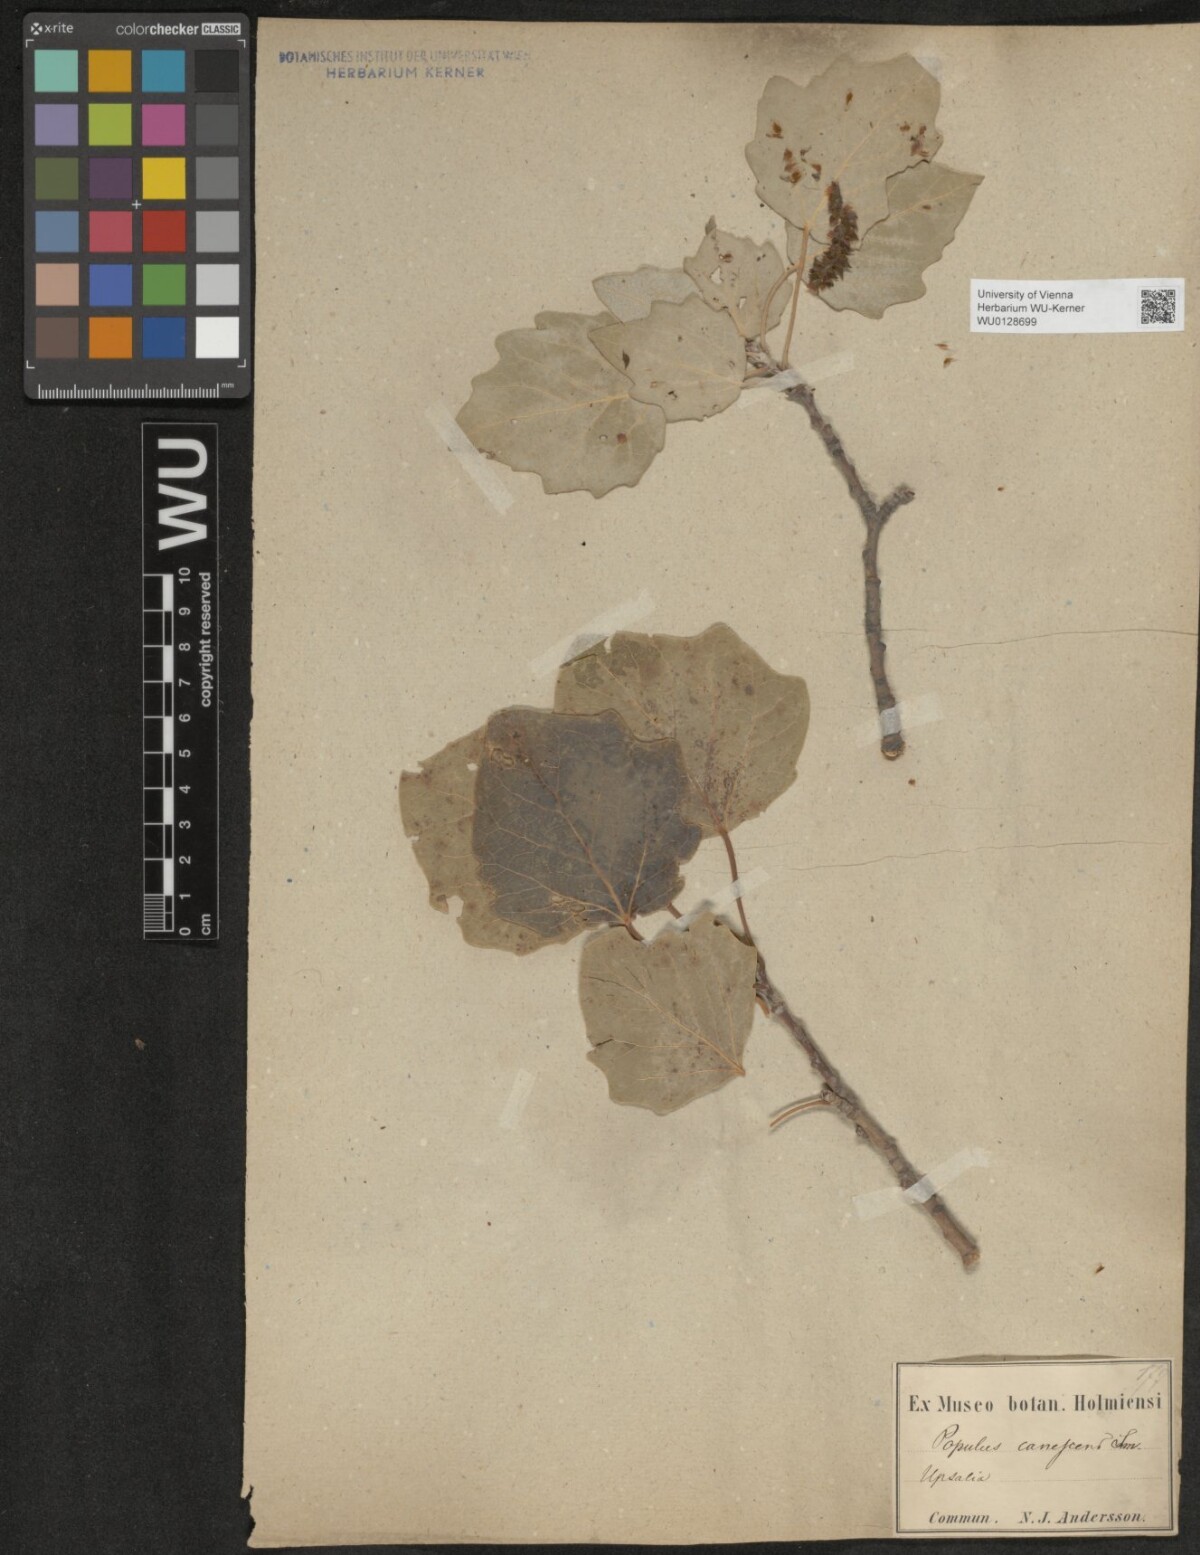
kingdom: Plantae
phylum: Tracheophyta
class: Magnoliopsida
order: Malpighiales
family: Salicaceae
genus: Populus
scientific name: Populus canescens
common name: Gray poplar
